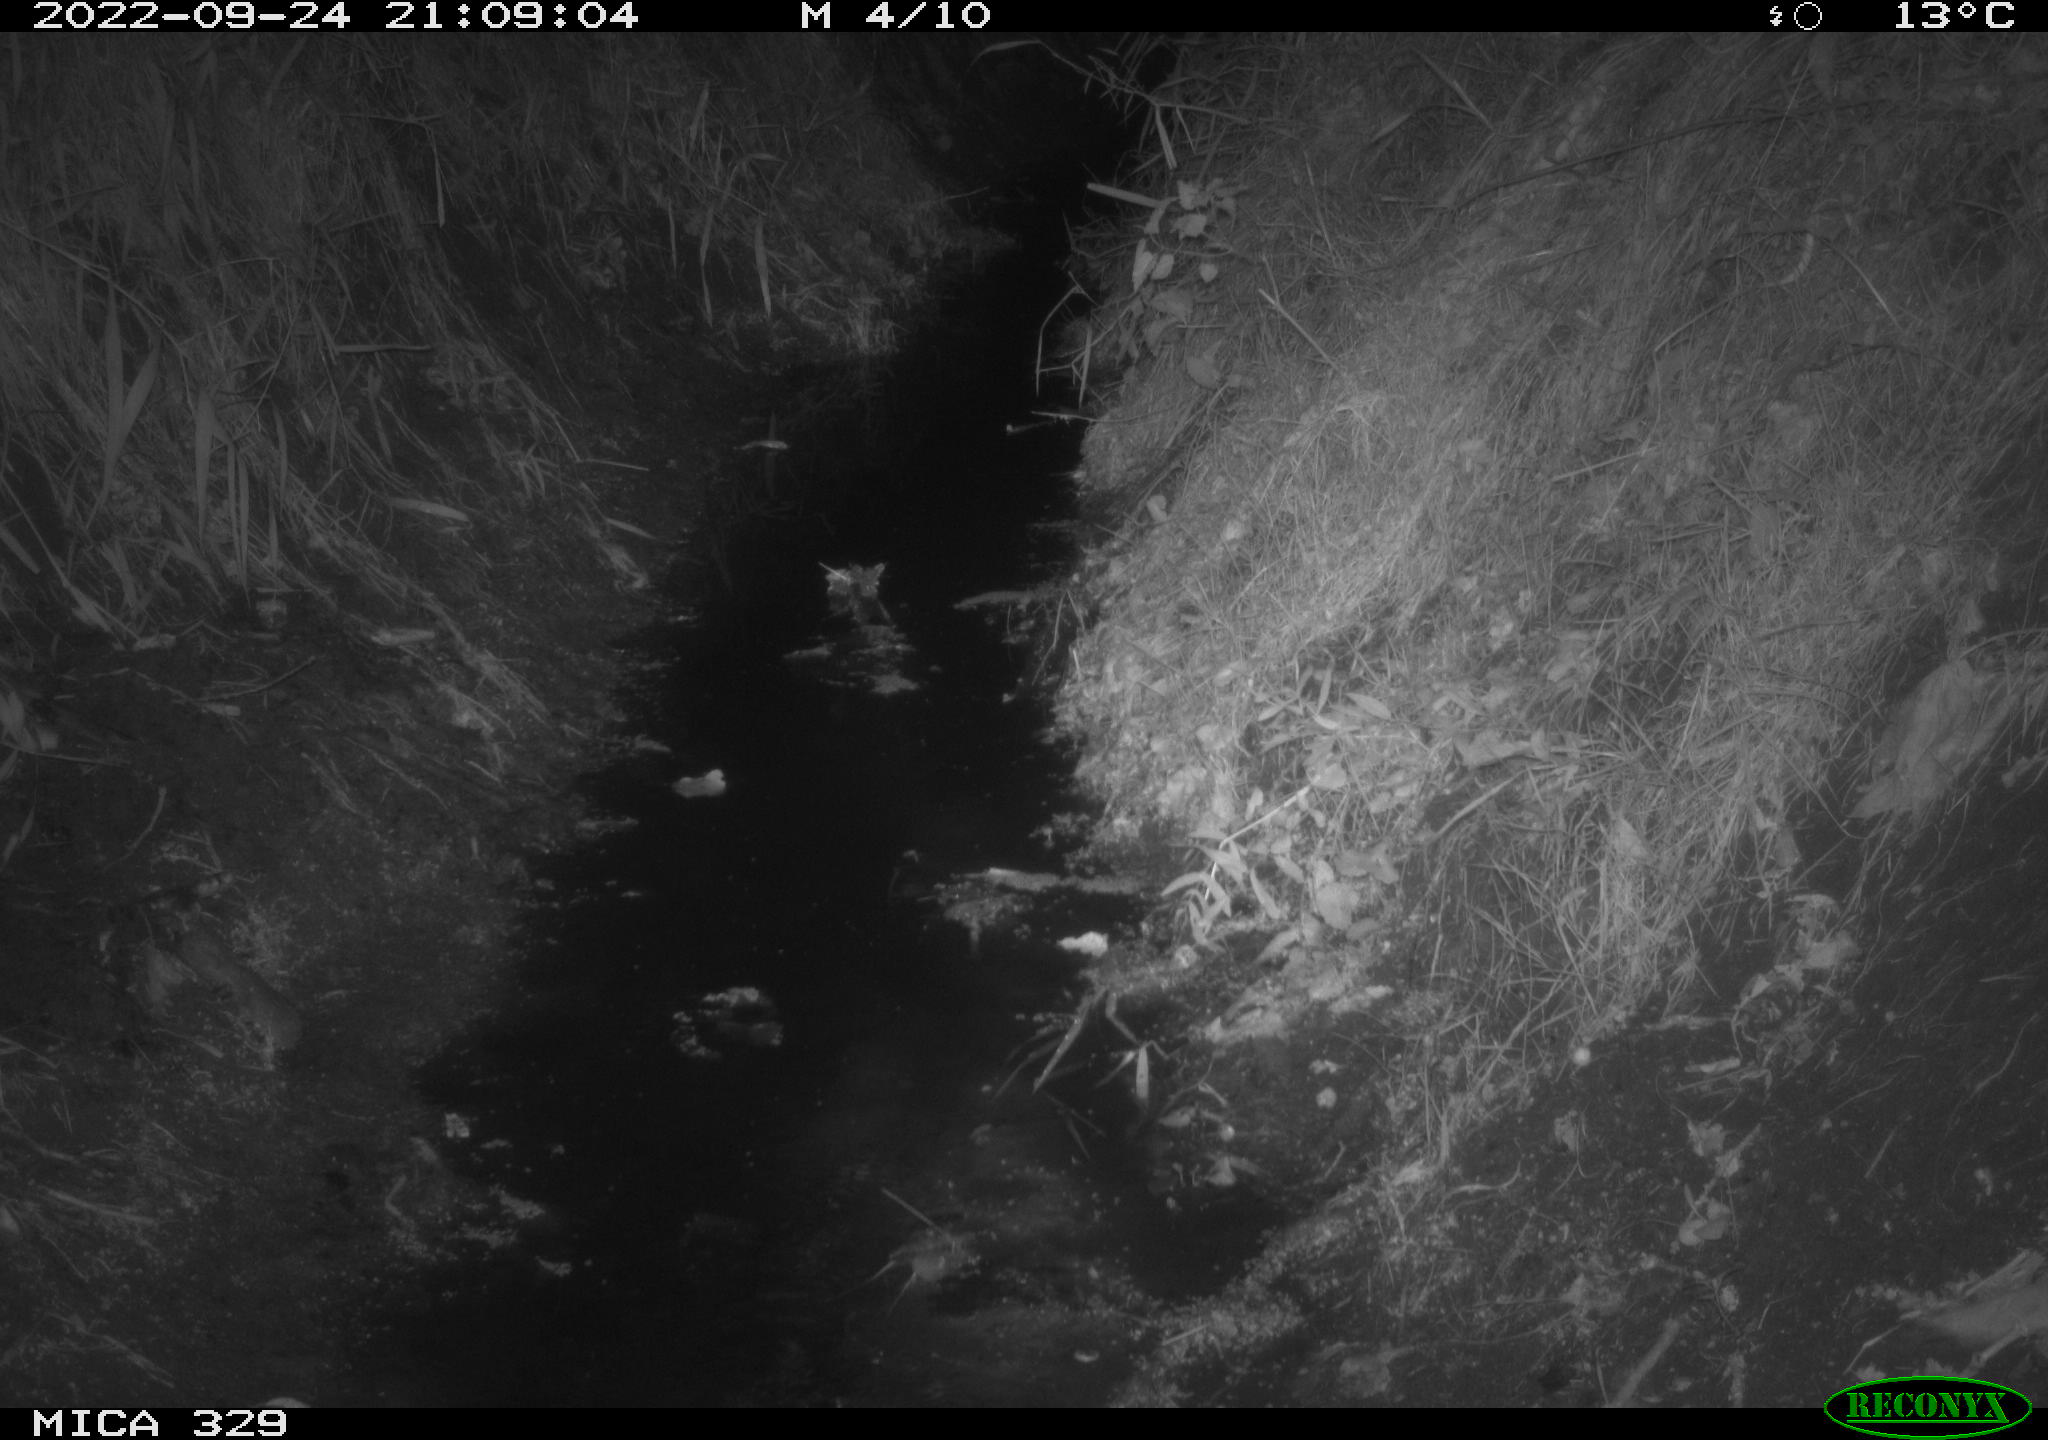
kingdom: Animalia
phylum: Chordata
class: Mammalia
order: Rodentia
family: Muridae
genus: Rattus
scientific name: Rattus norvegicus
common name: Brown rat
